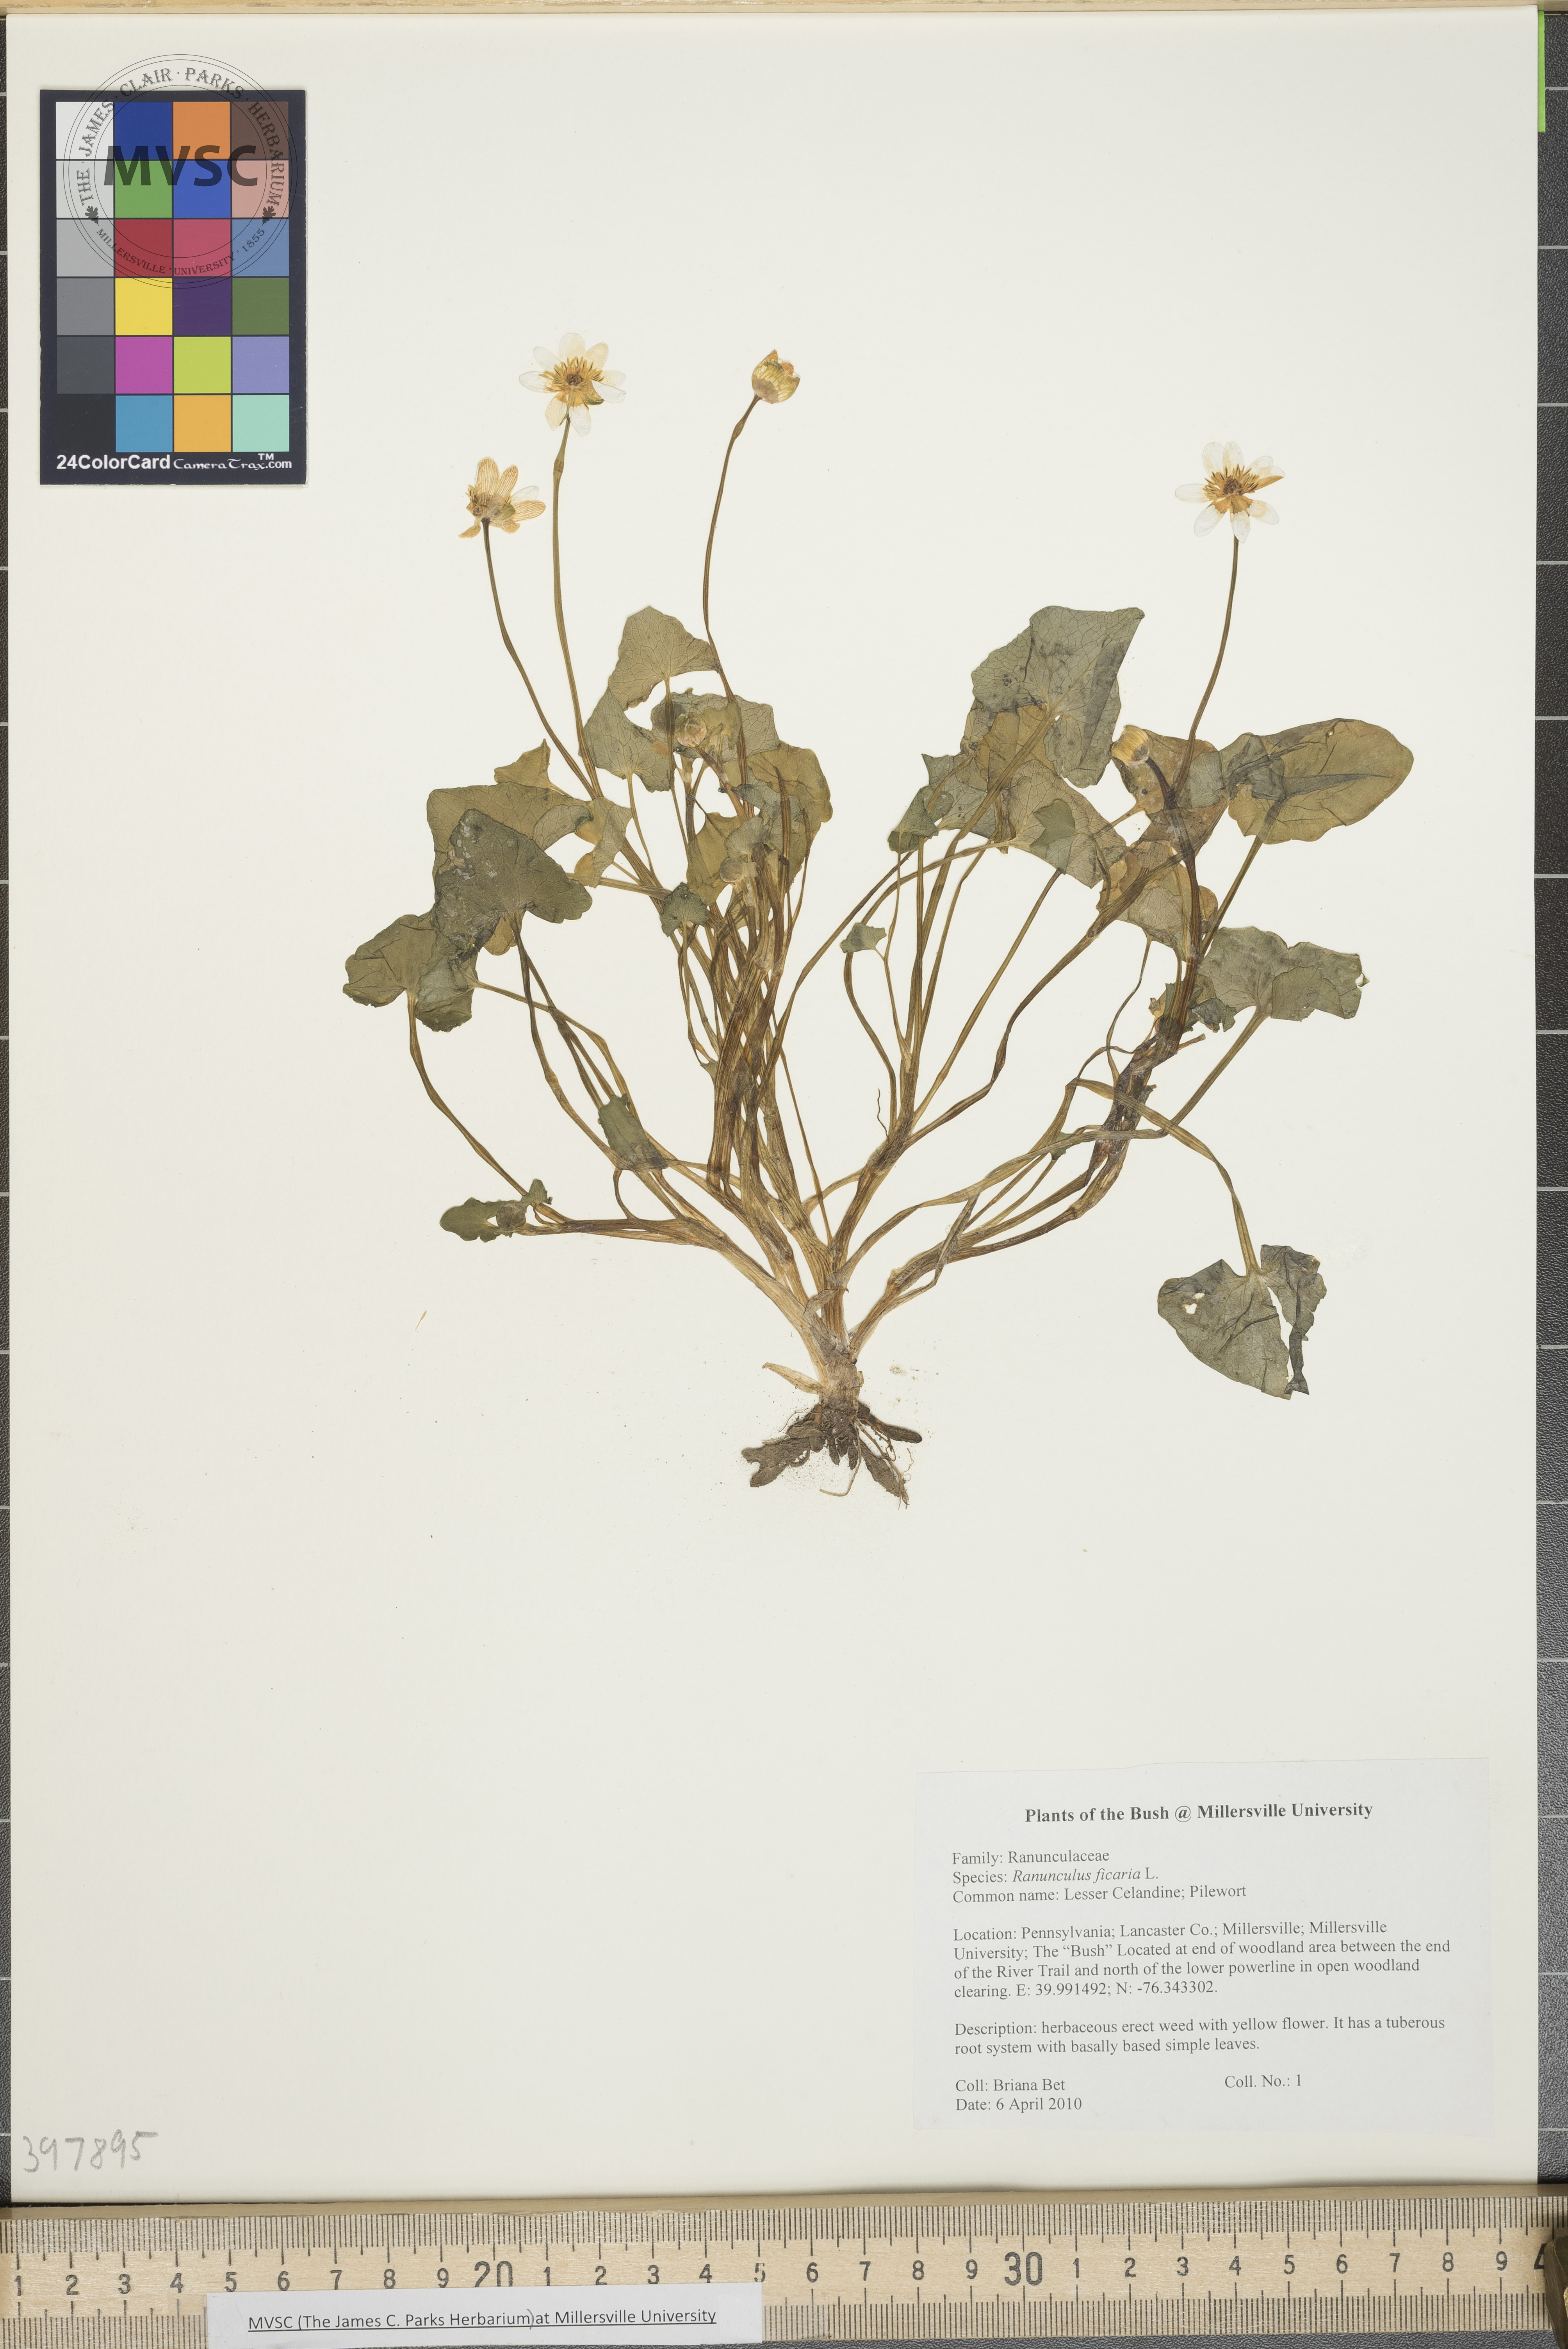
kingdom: Plantae
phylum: Tracheophyta
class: Magnoliopsida
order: Ranunculales
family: Ranunculaceae
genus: Ranunculus
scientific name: Ranunculus ficaria
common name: Lesser celandine
